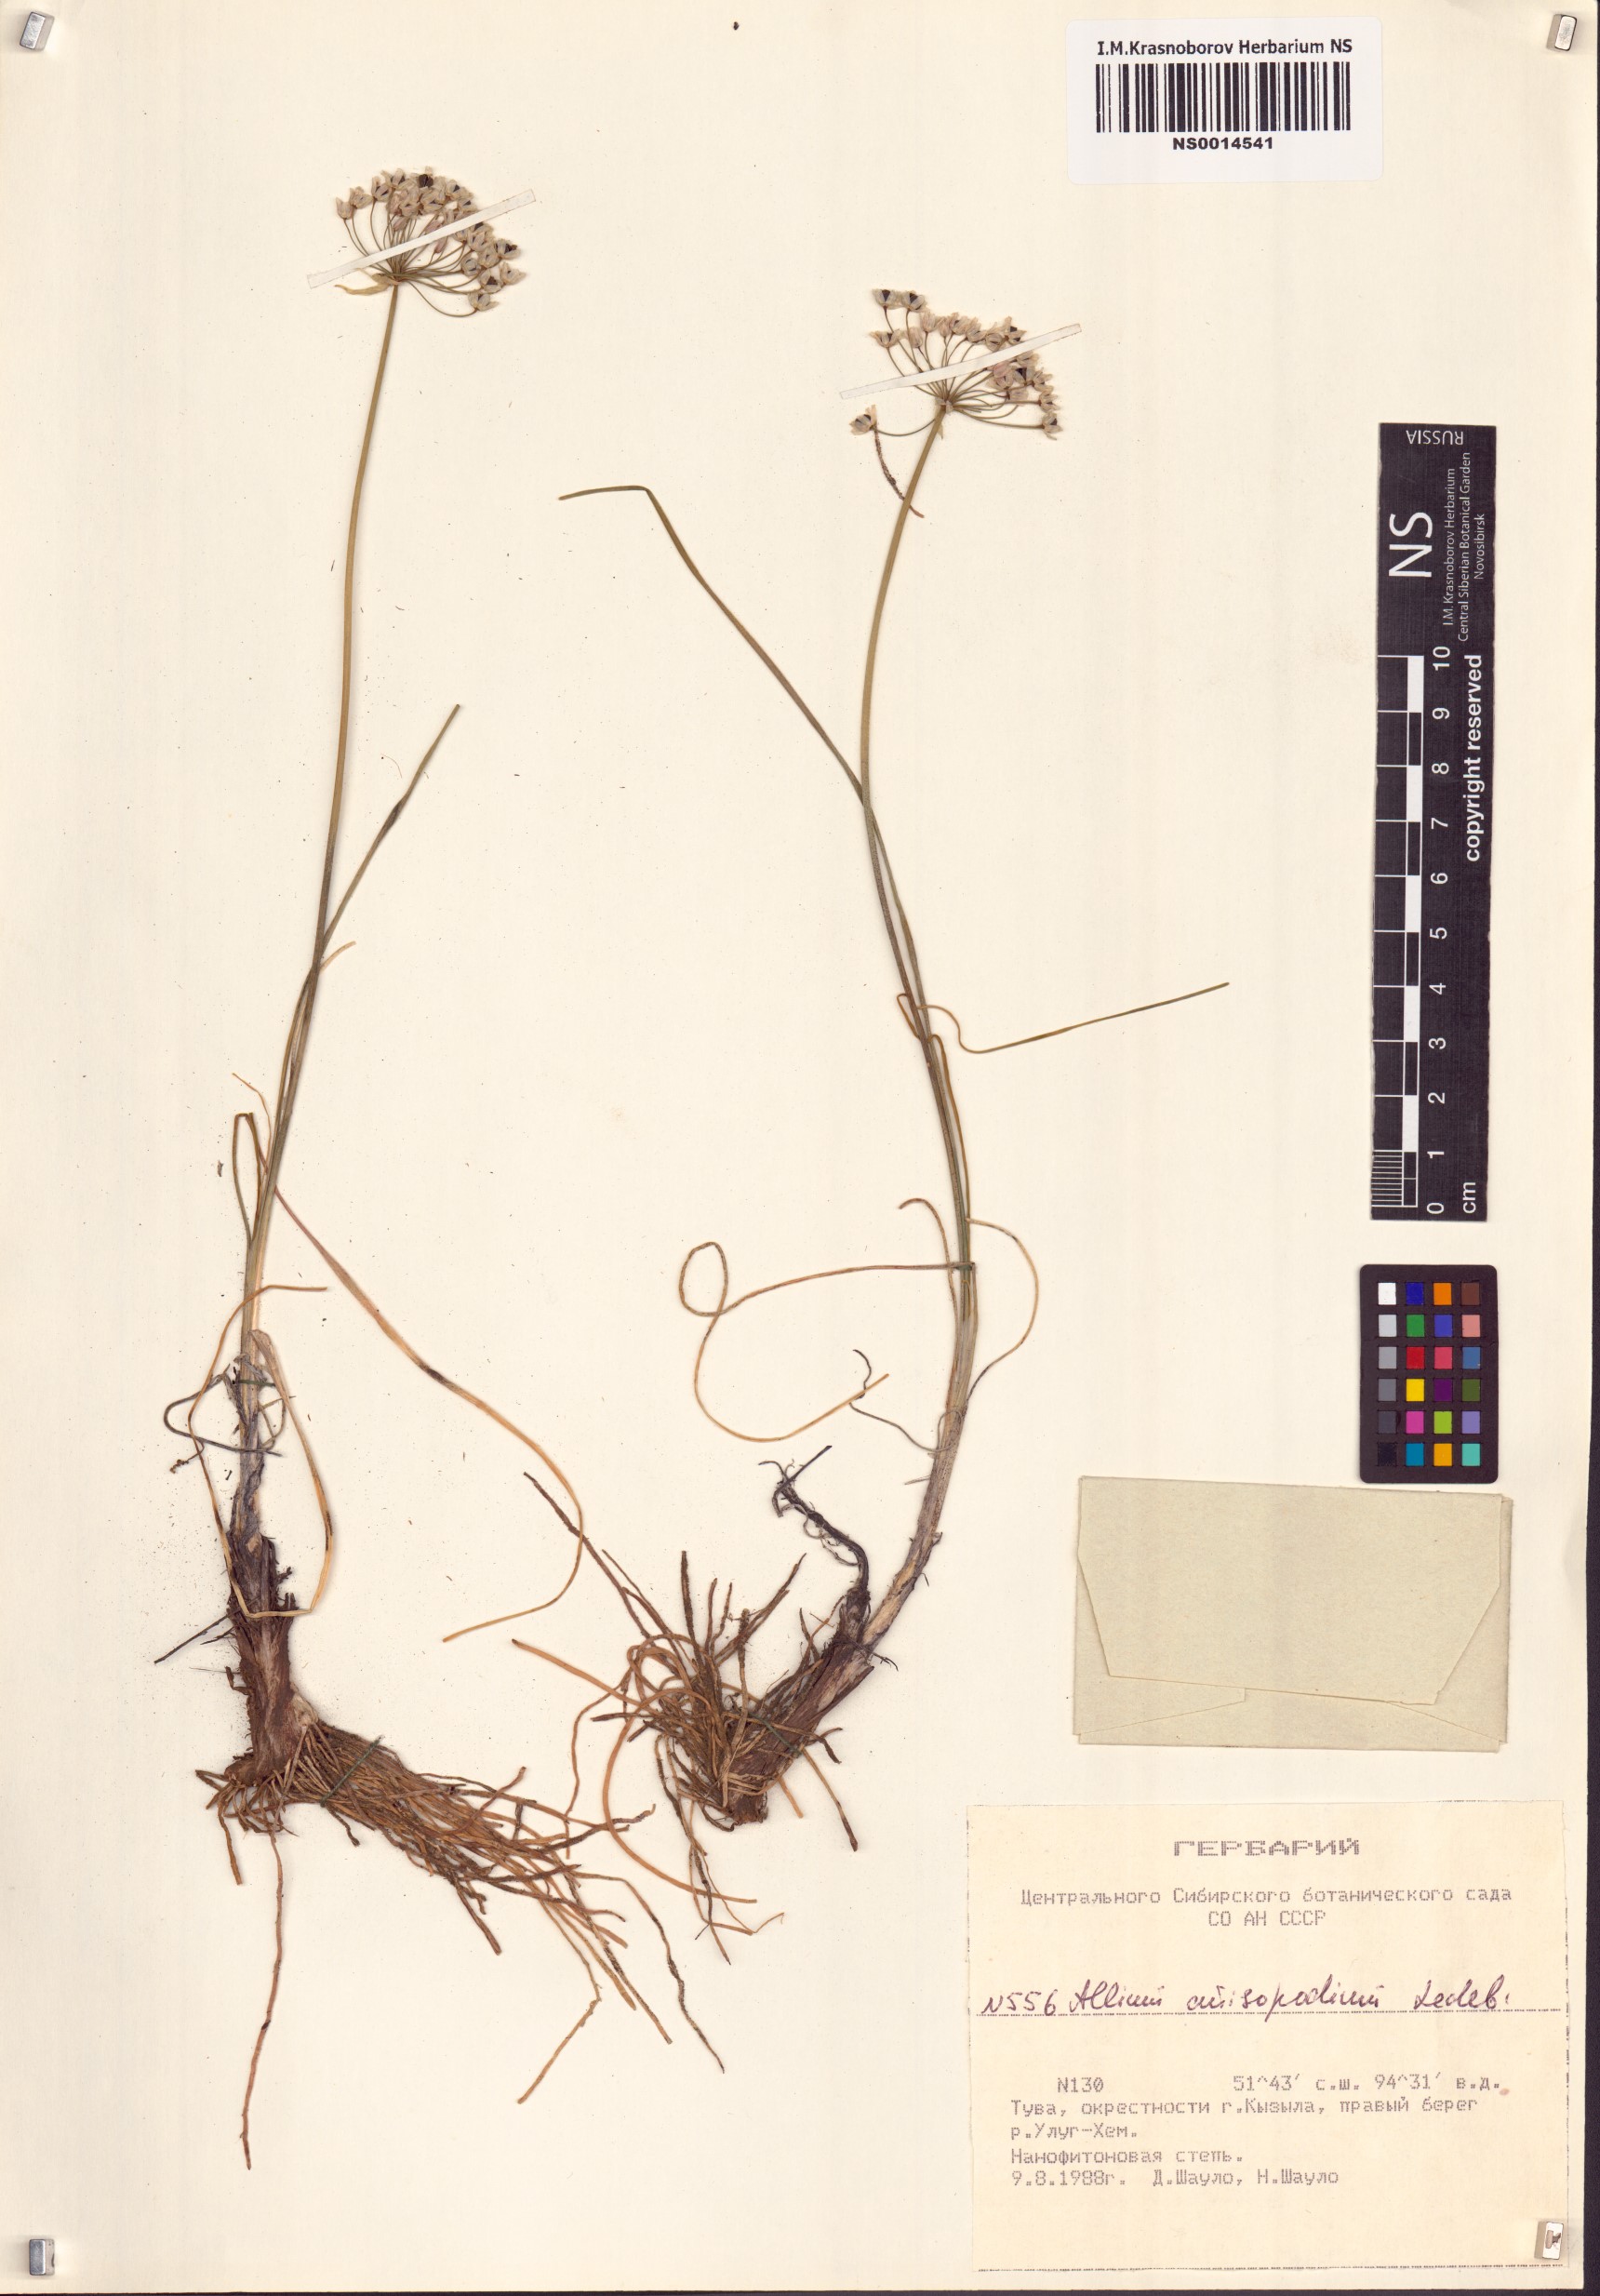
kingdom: Plantae
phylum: Tracheophyta
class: Liliopsida
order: Asparagales
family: Amaryllidaceae
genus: Allium
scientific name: Allium anisopodium
